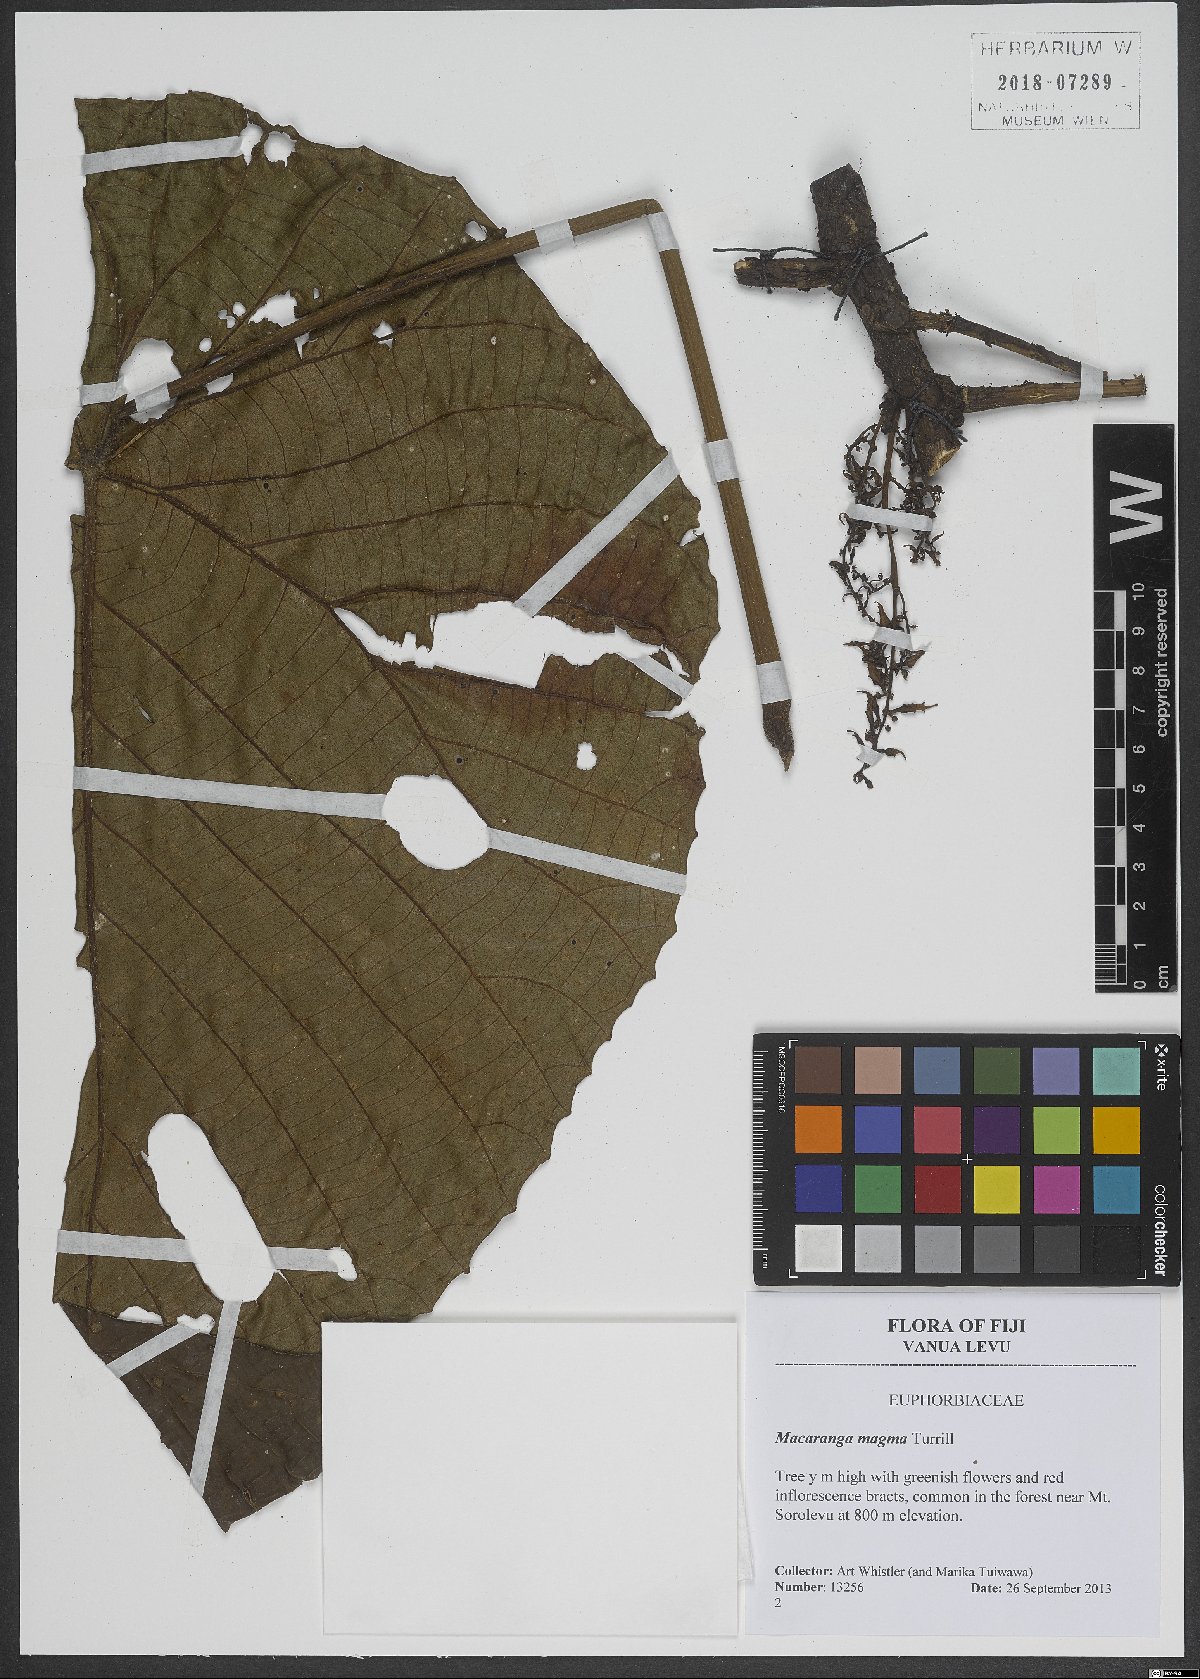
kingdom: Plantae
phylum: Tracheophyta
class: Magnoliopsida
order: Malpighiales
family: Euphorbiaceae
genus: Macaranga
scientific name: Macaranga magna
